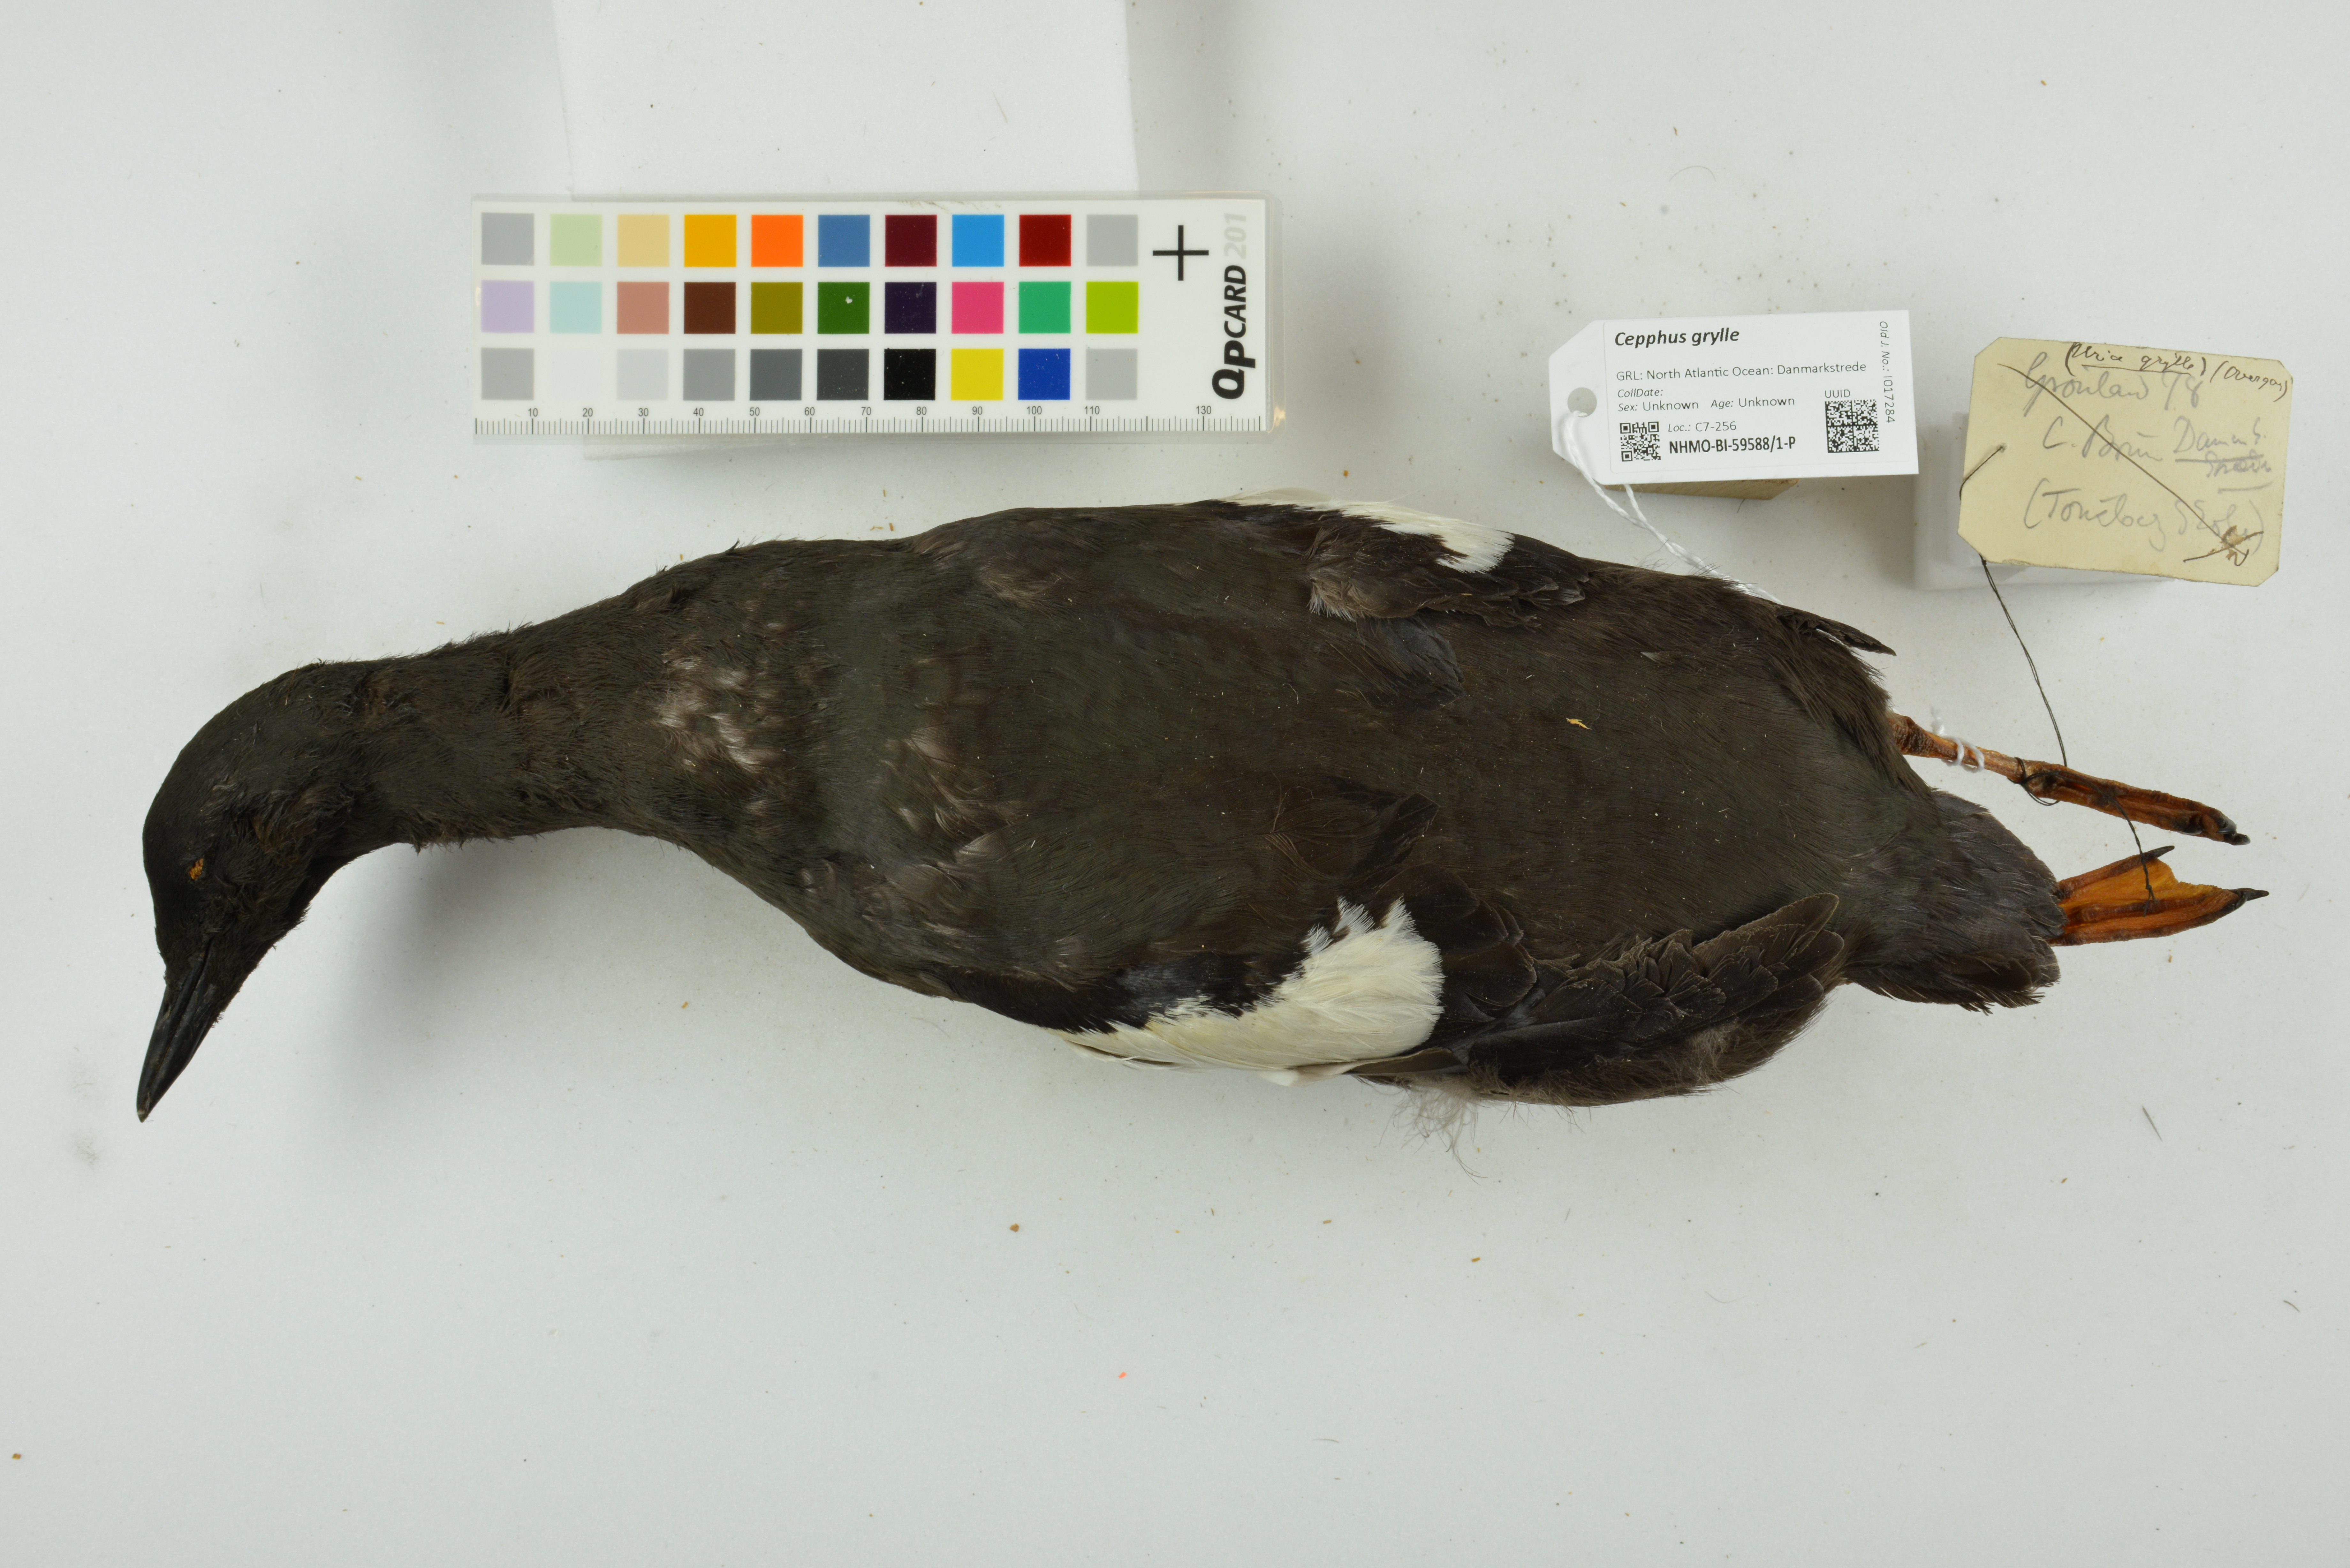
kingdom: Animalia
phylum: Chordata
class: Aves
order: Charadriiformes
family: Alcidae
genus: Cepphus
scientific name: Cepphus grylle
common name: Black guillemot
